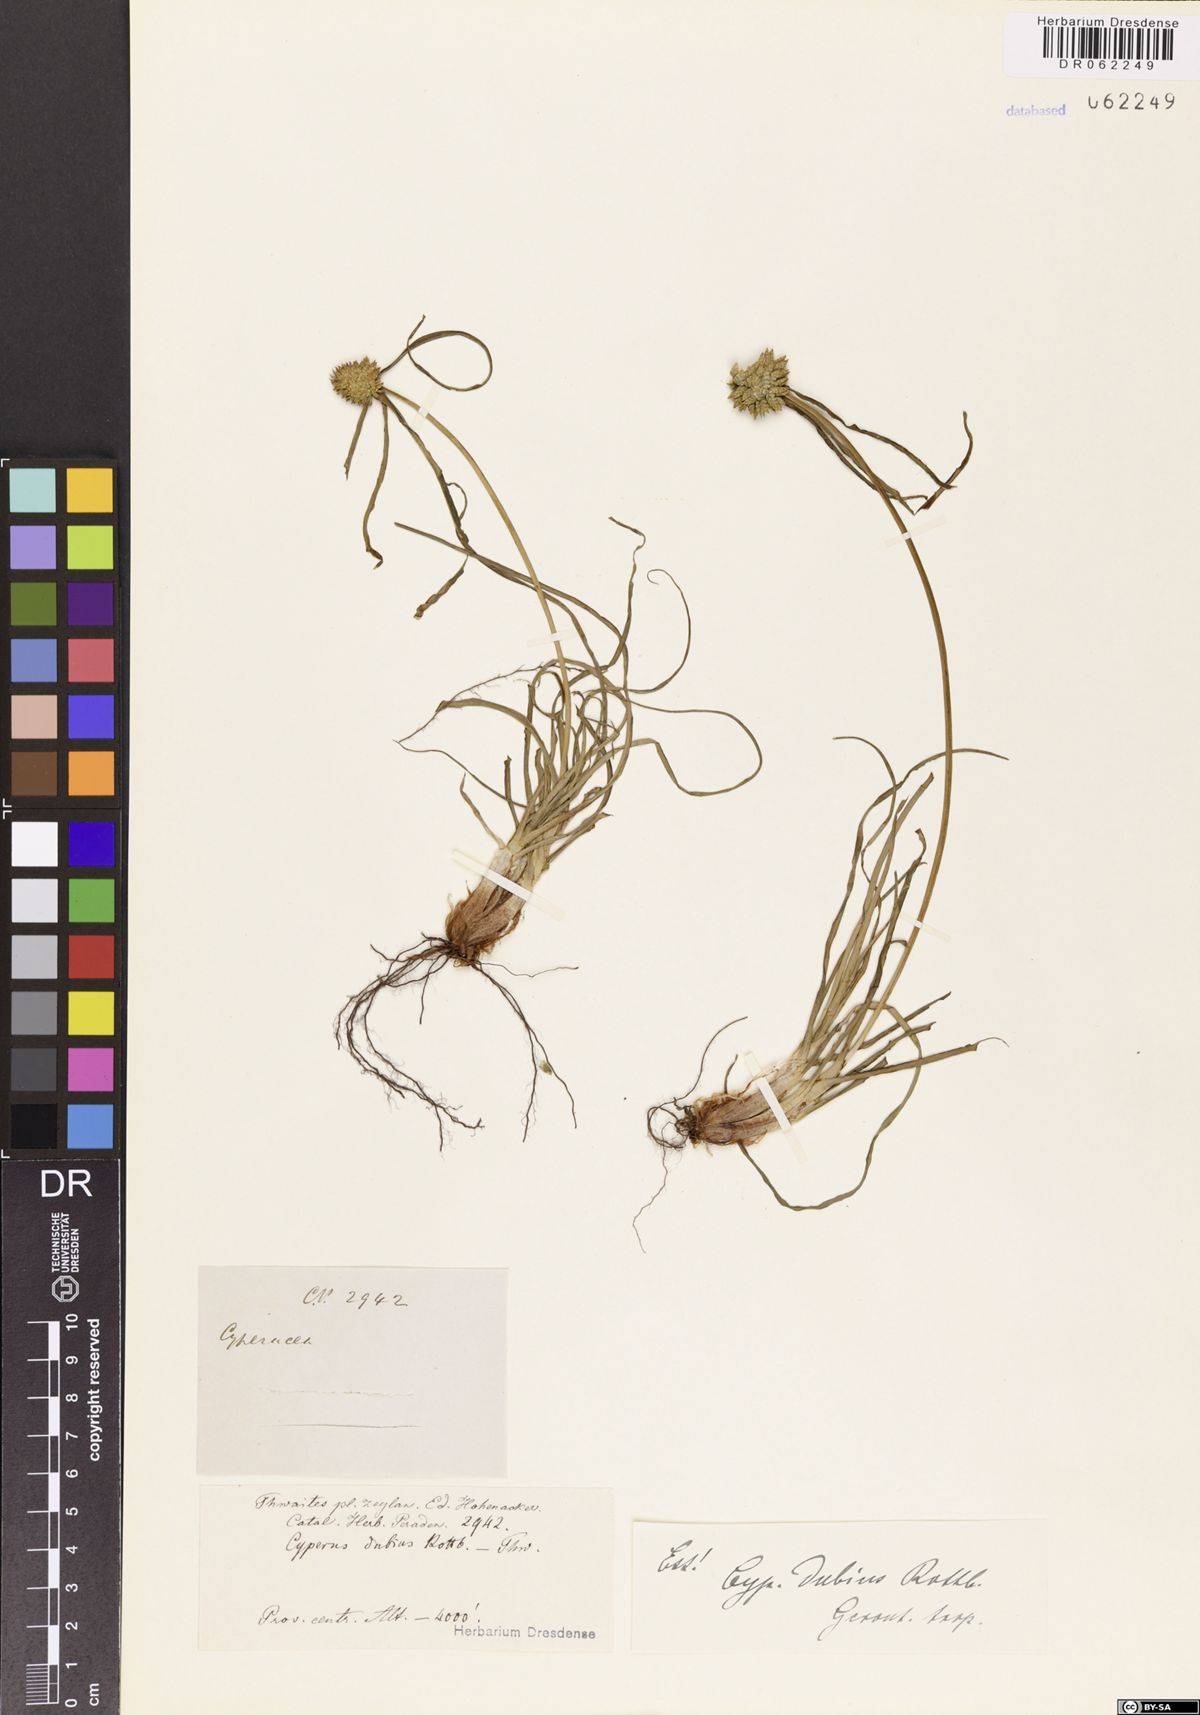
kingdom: Plantae
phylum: Tracheophyta
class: Liliopsida
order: Poales
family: Cyperaceae
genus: Cyperus
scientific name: Cyperus dubius
